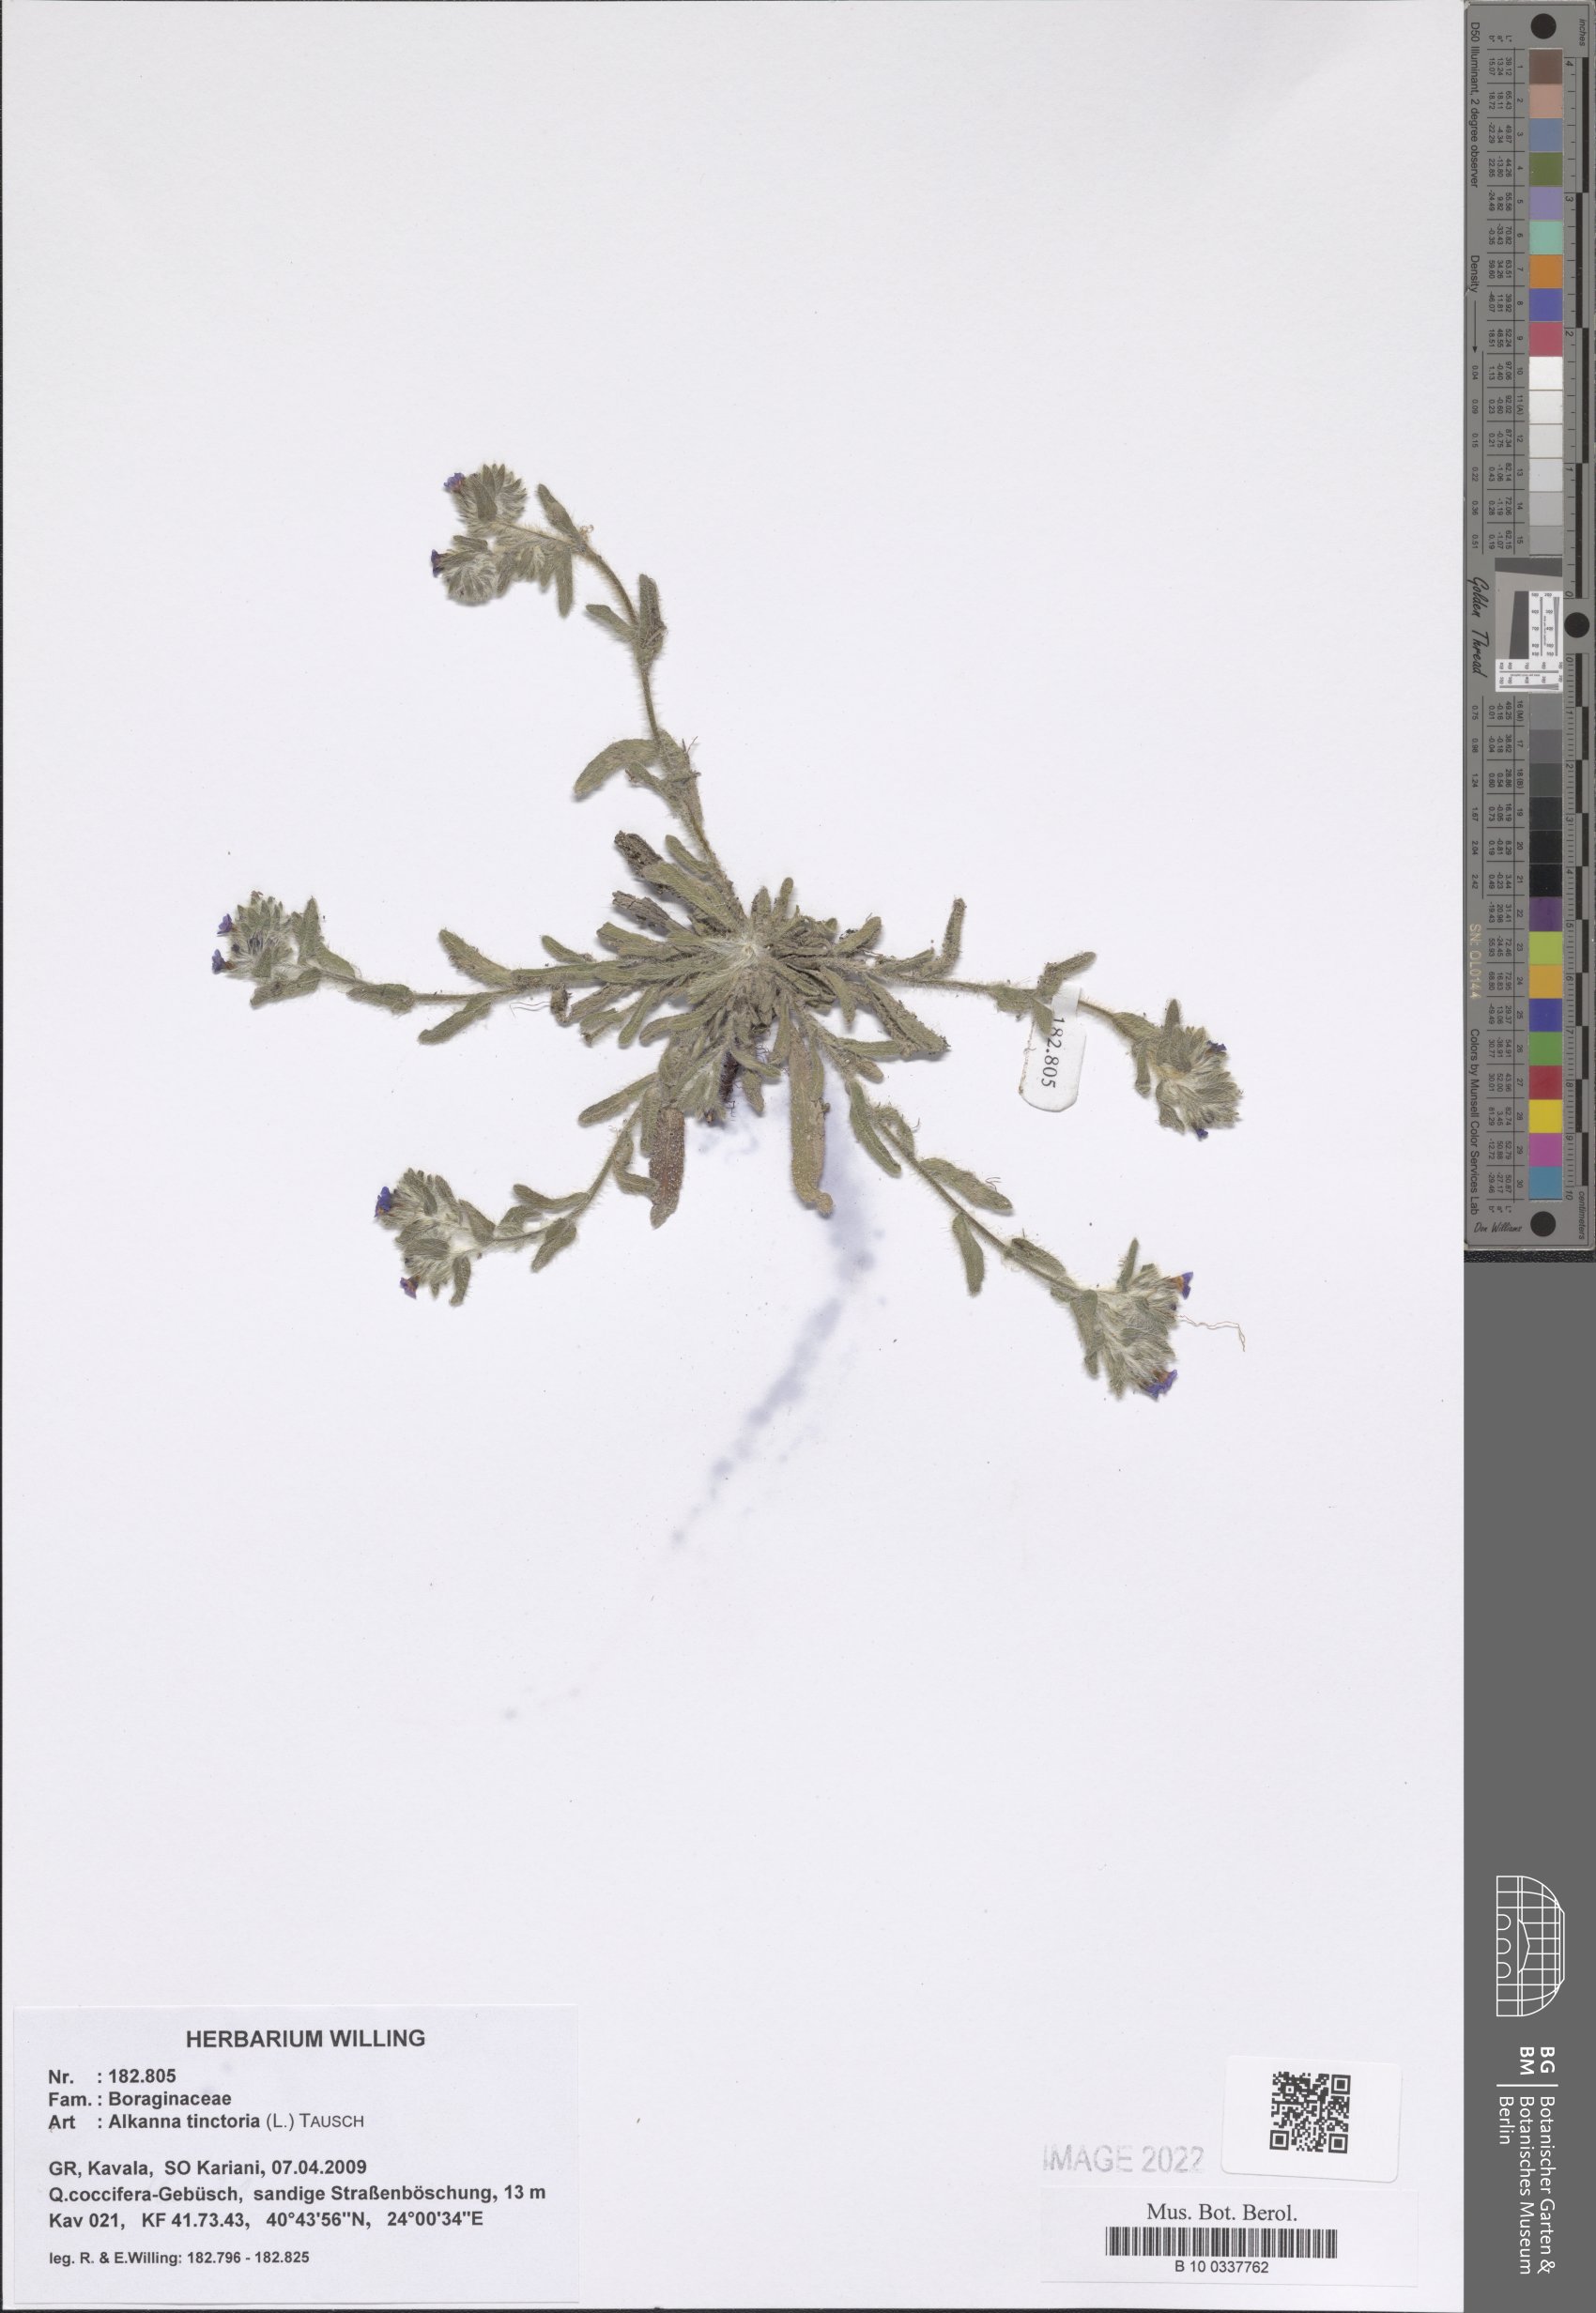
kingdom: Plantae
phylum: Tracheophyta
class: Magnoliopsida
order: Boraginales
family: Boraginaceae
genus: Alkanna
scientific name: Alkanna tinctoria
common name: Dyer's-alkanet
